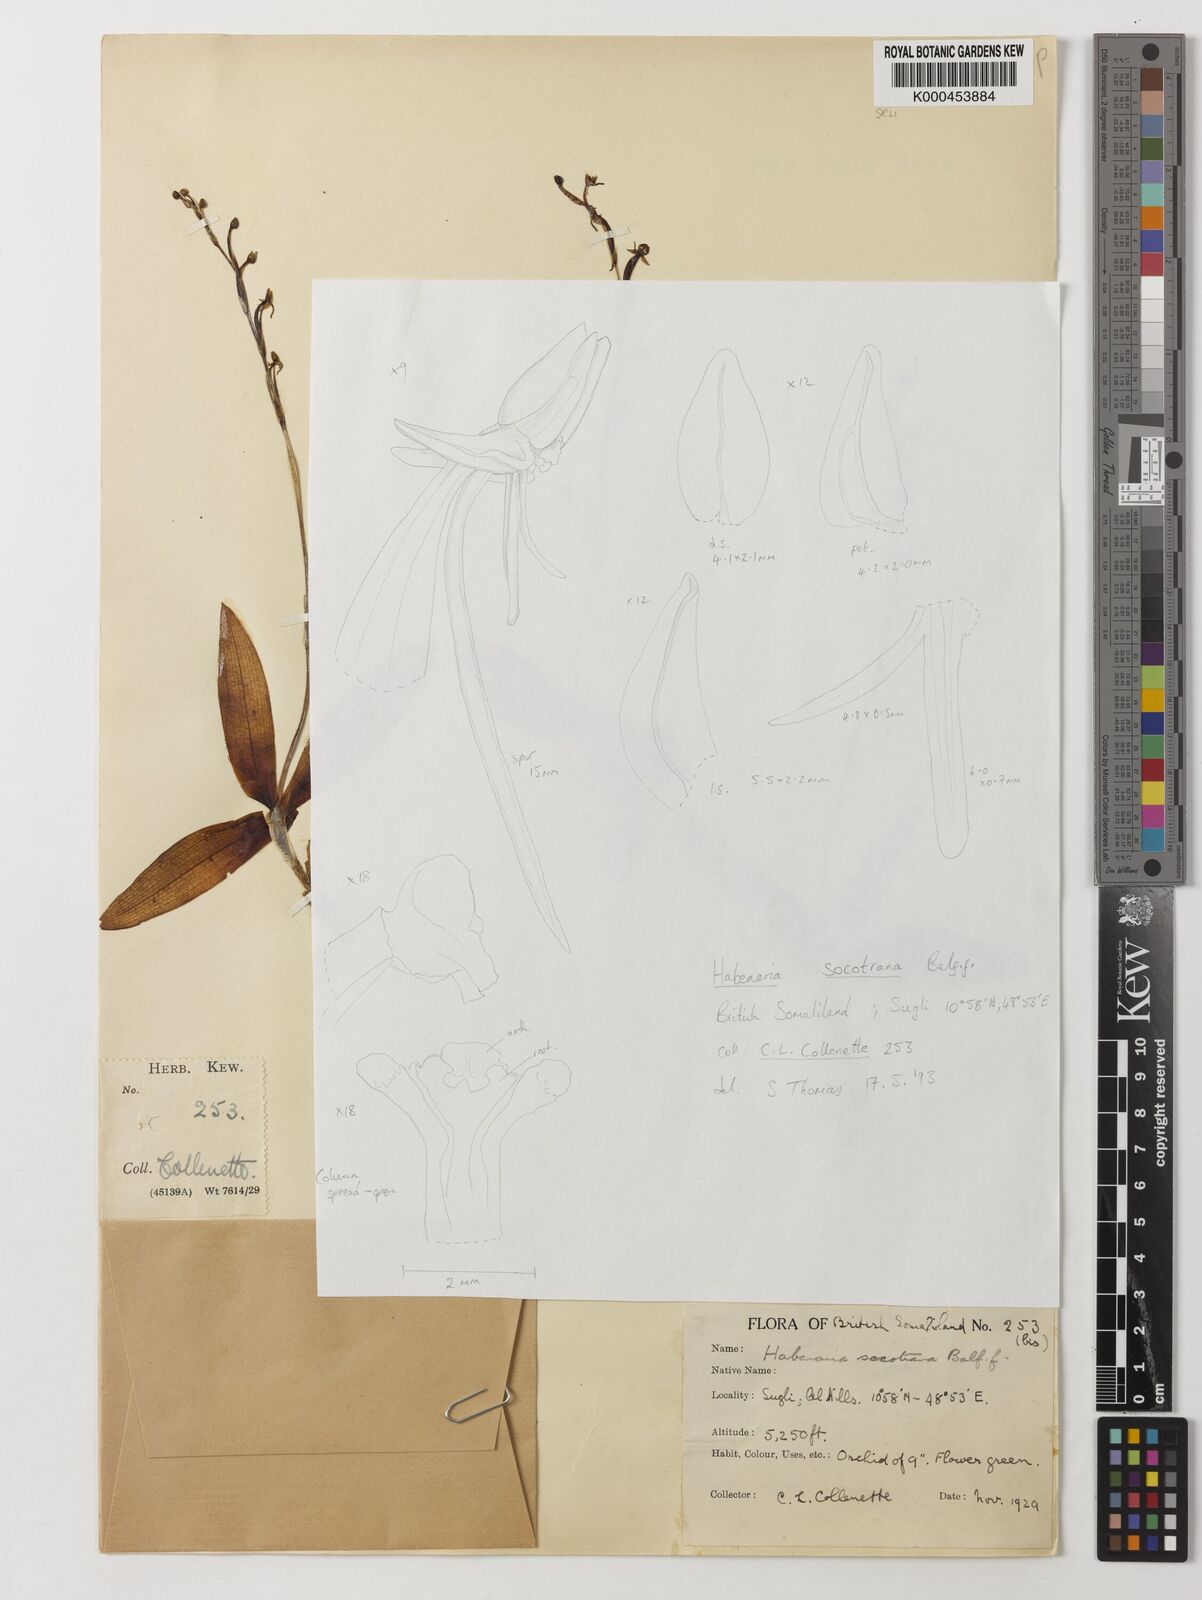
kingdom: Plantae
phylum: Tracheophyta
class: Liliopsida
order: Asparagales
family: Orchidaceae
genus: Habenaria
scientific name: Habenaria socotrana
